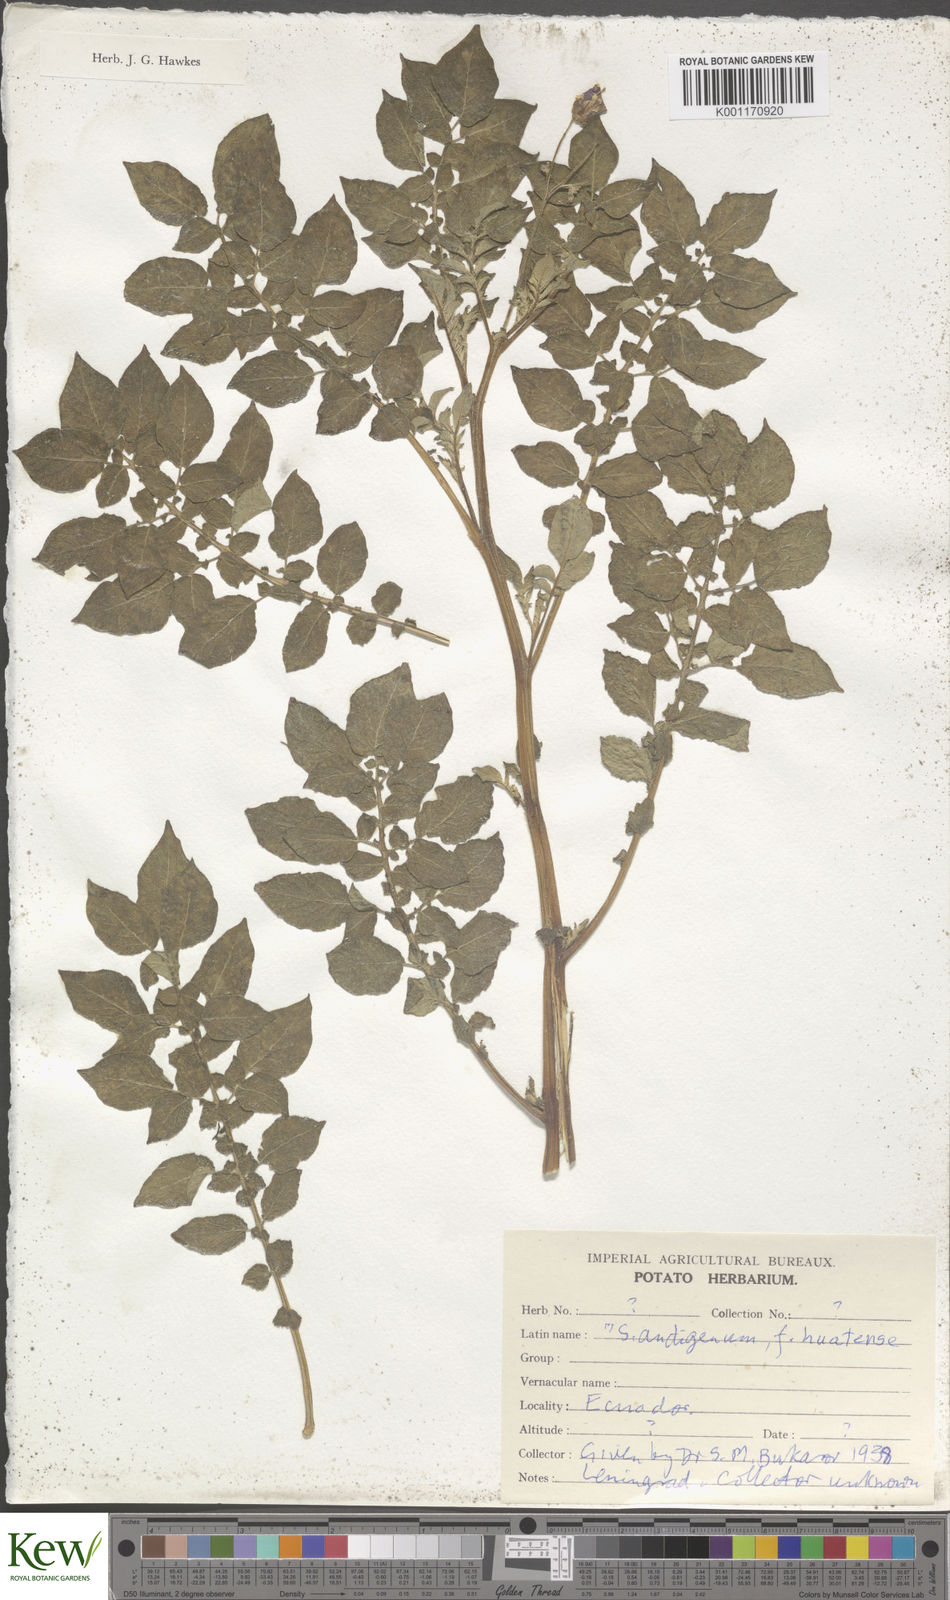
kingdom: Plantae
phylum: Tracheophyta
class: Magnoliopsida
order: Solanales
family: Solanaceae
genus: Solanum
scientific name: Solanum tuberosum
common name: Potato
